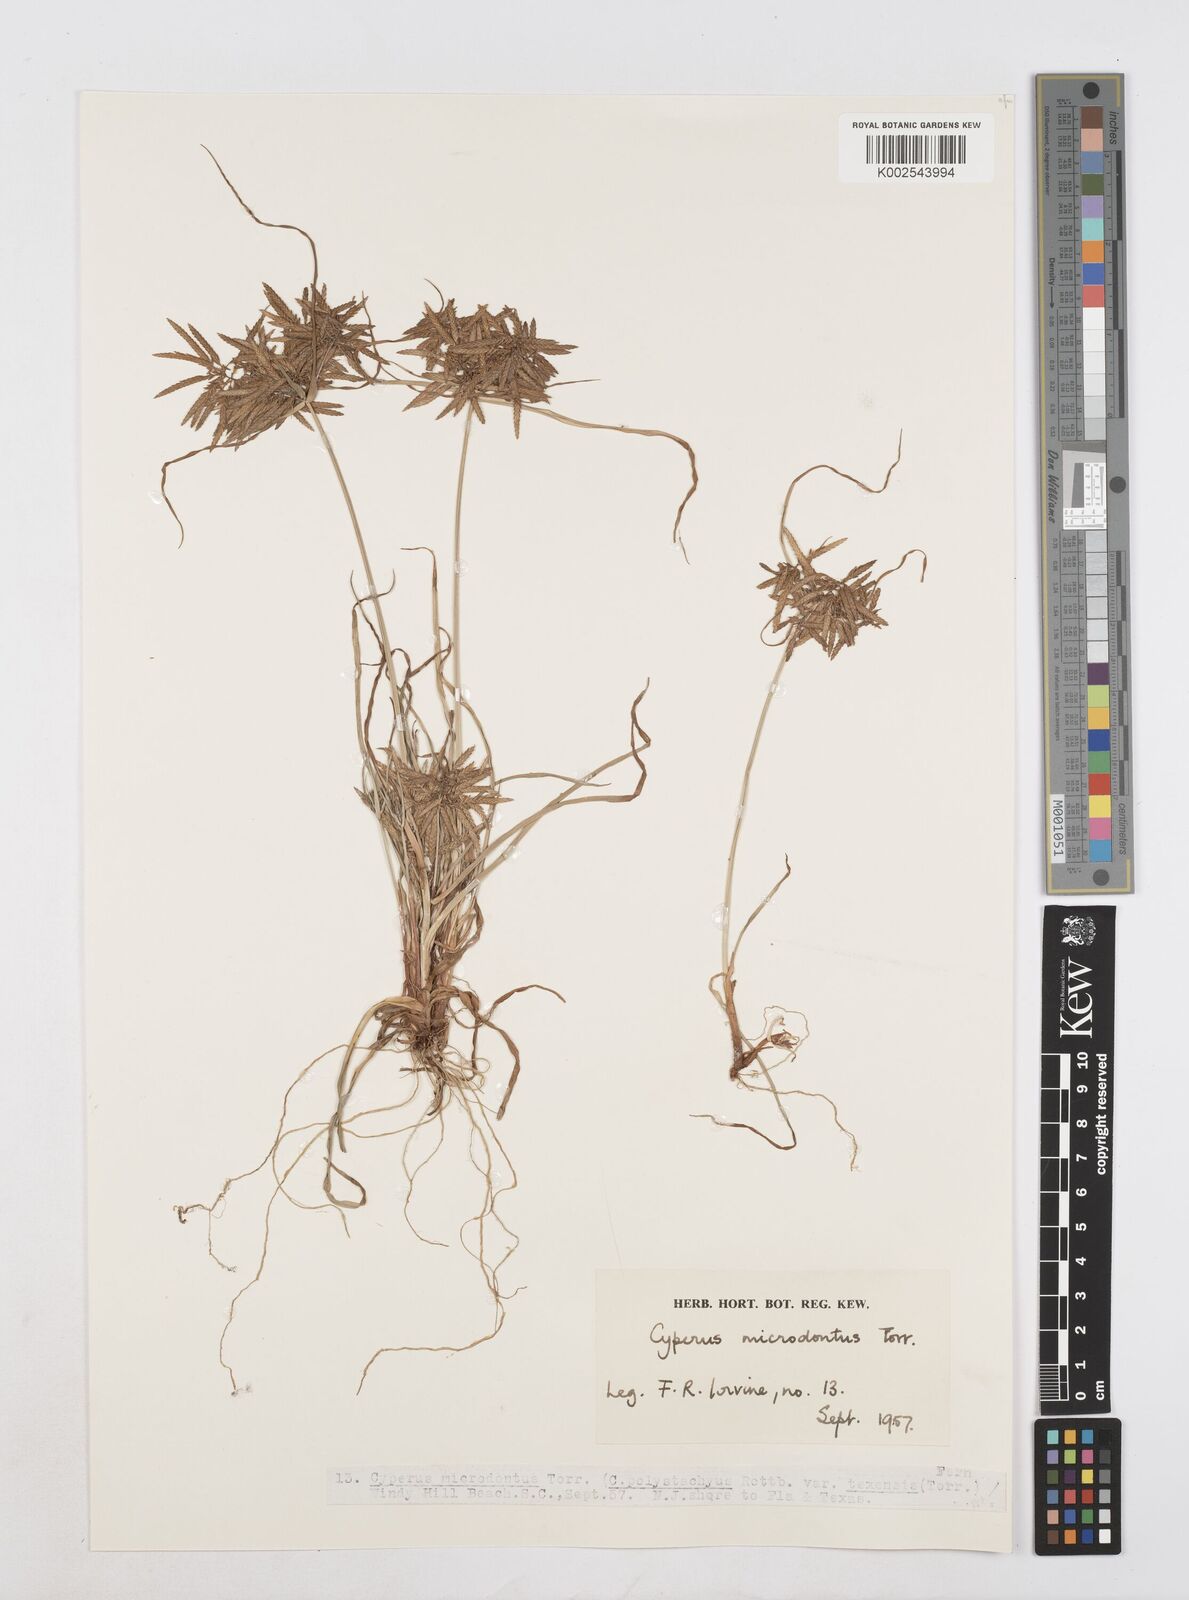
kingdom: Plantae
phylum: Tracheophyta
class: Liliopsida
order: Poales
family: Cyperaceae
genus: Cyperus
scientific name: Cyperus polystachyos
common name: Bunchy flat sedge
